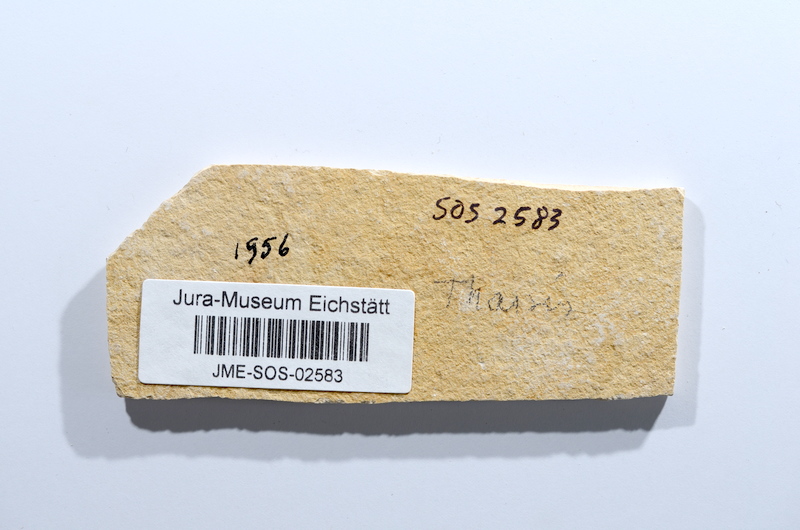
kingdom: Animalia
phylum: Chordata
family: Ascalaboidae
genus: Tharsis
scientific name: Tharsis dubius
